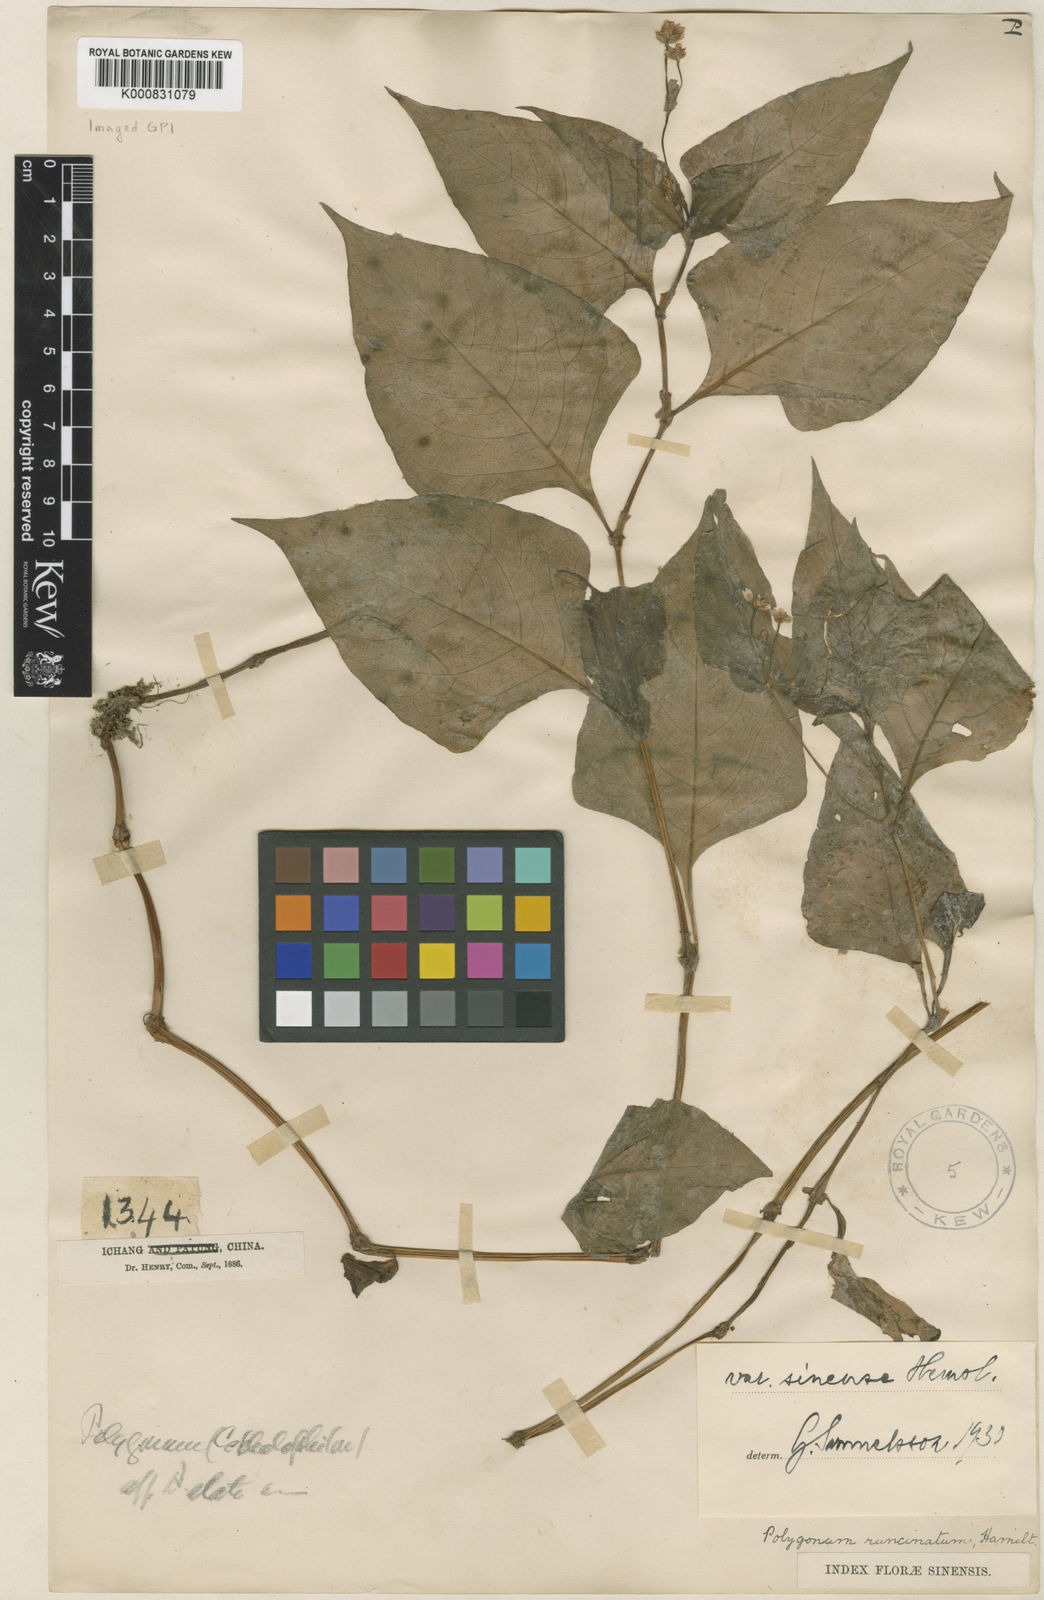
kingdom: Plantae
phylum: Tracheophyta
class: Magnoliopsida
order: Caryophyllales
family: Polygonaceae
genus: Persicaria
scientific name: Persicaria runcinata
